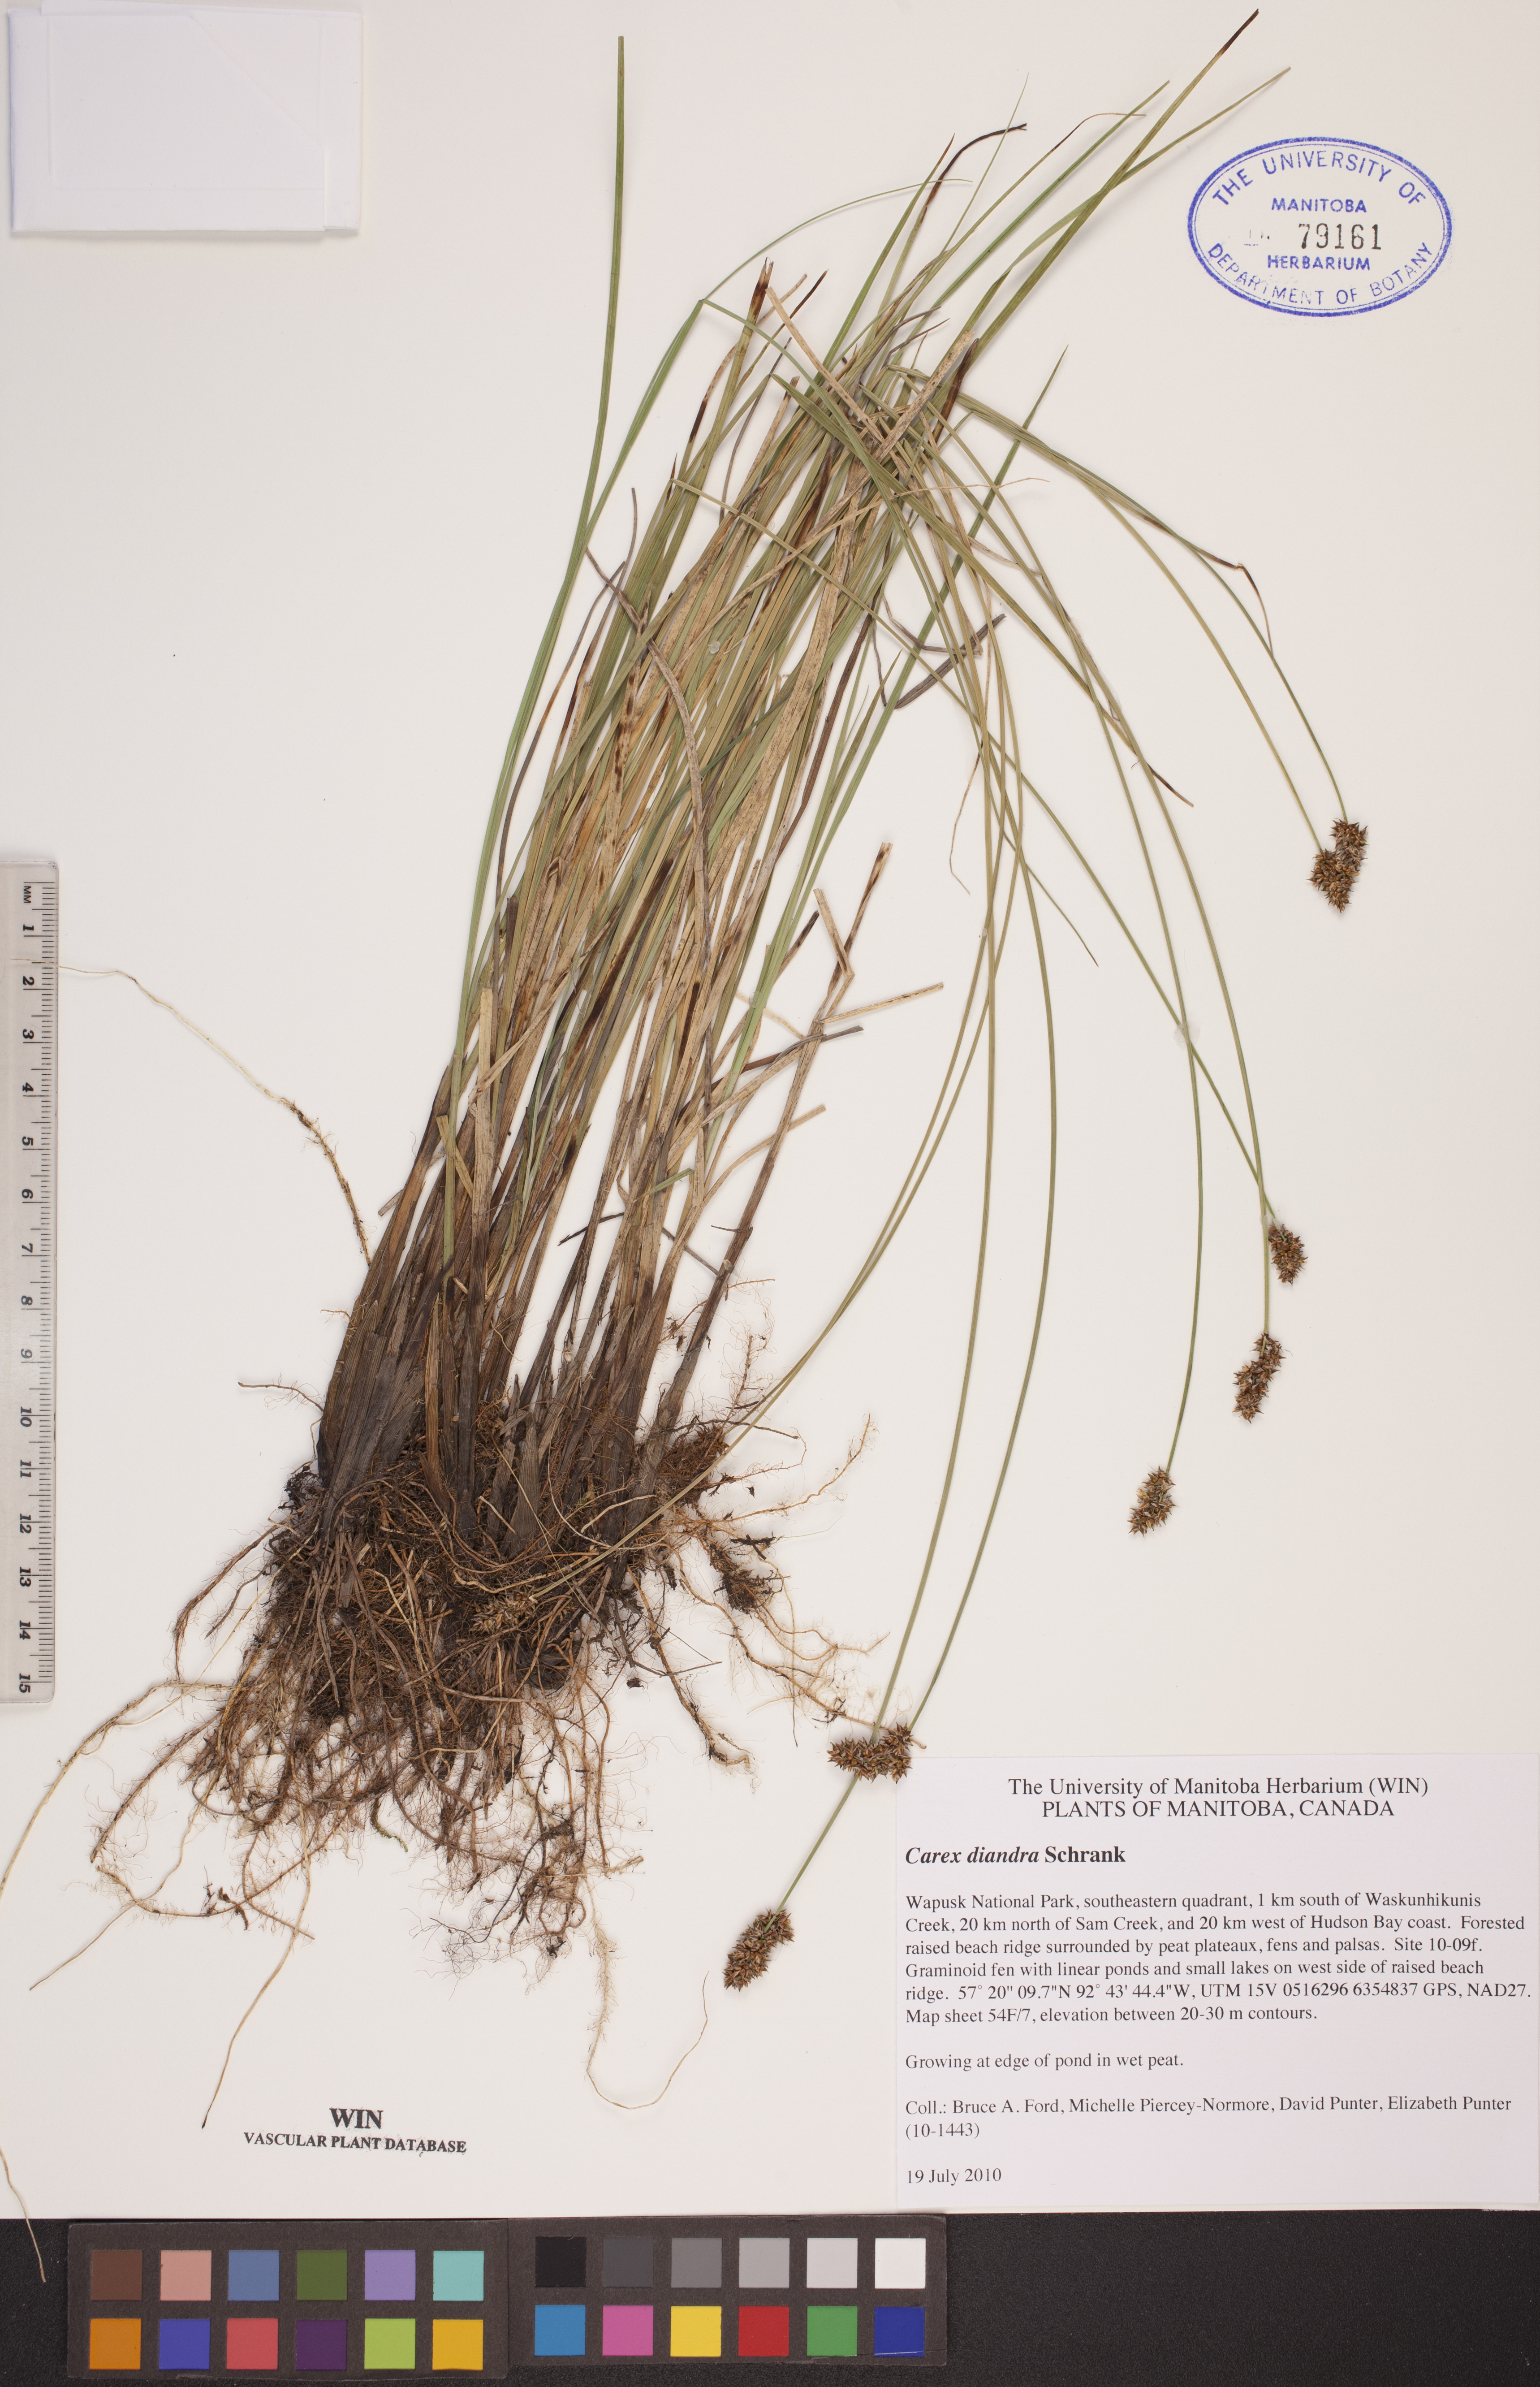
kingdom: Plantae
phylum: Tracheophyta
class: Liliopsida
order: Poales
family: Cyperaceae
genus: Carex
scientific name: Carex diandra
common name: Lesser tussock-sedge
